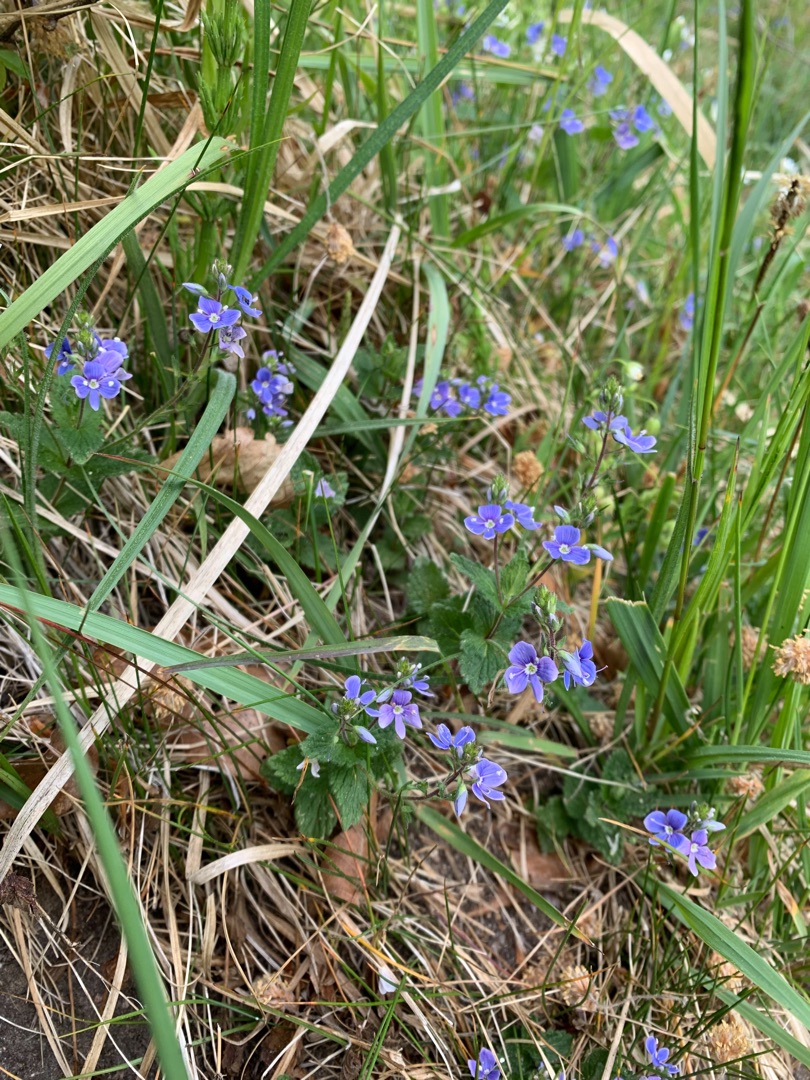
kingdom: Plantae
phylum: Tracheophyta
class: Magnoliopsida
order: Lamiales
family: Plantaginaceae
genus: Veronica
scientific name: Veronica chamaedrys
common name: Tveskægget ærenpris
